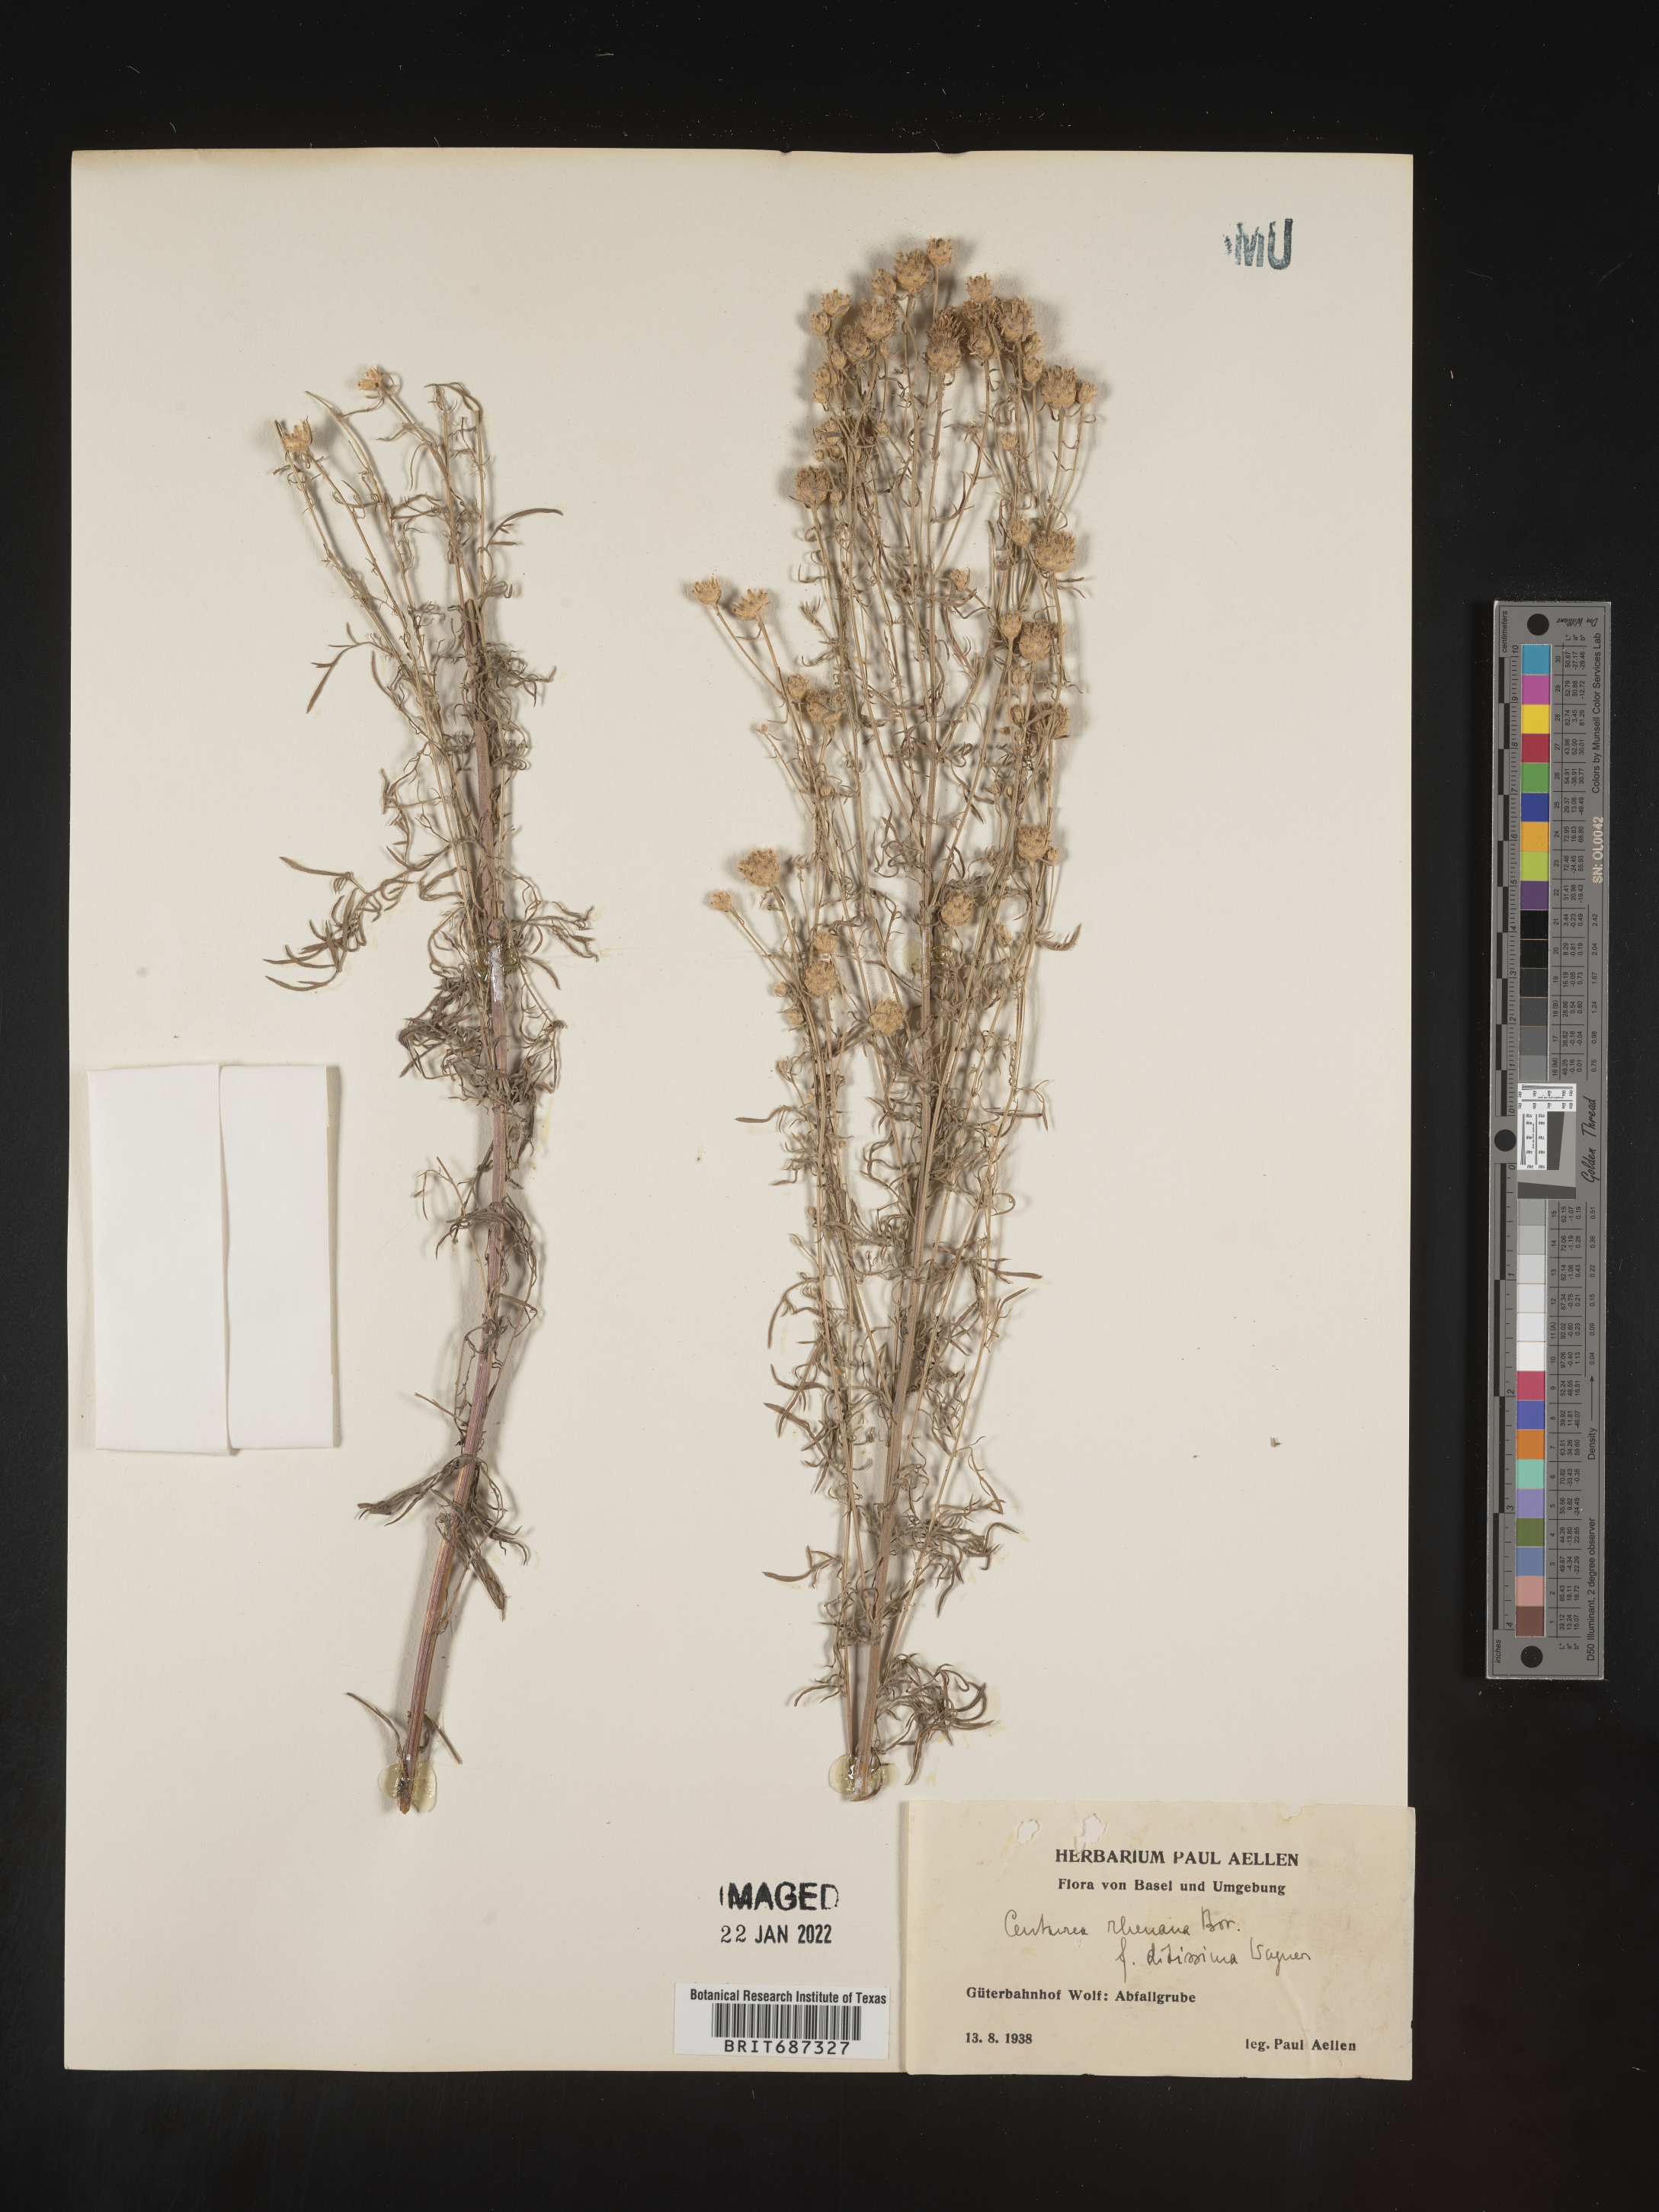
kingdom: Plantae
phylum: Tracheophyta
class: Magnoliopsida
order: Asterales
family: Asteraceae
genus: Centaurea
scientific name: Centaurea
